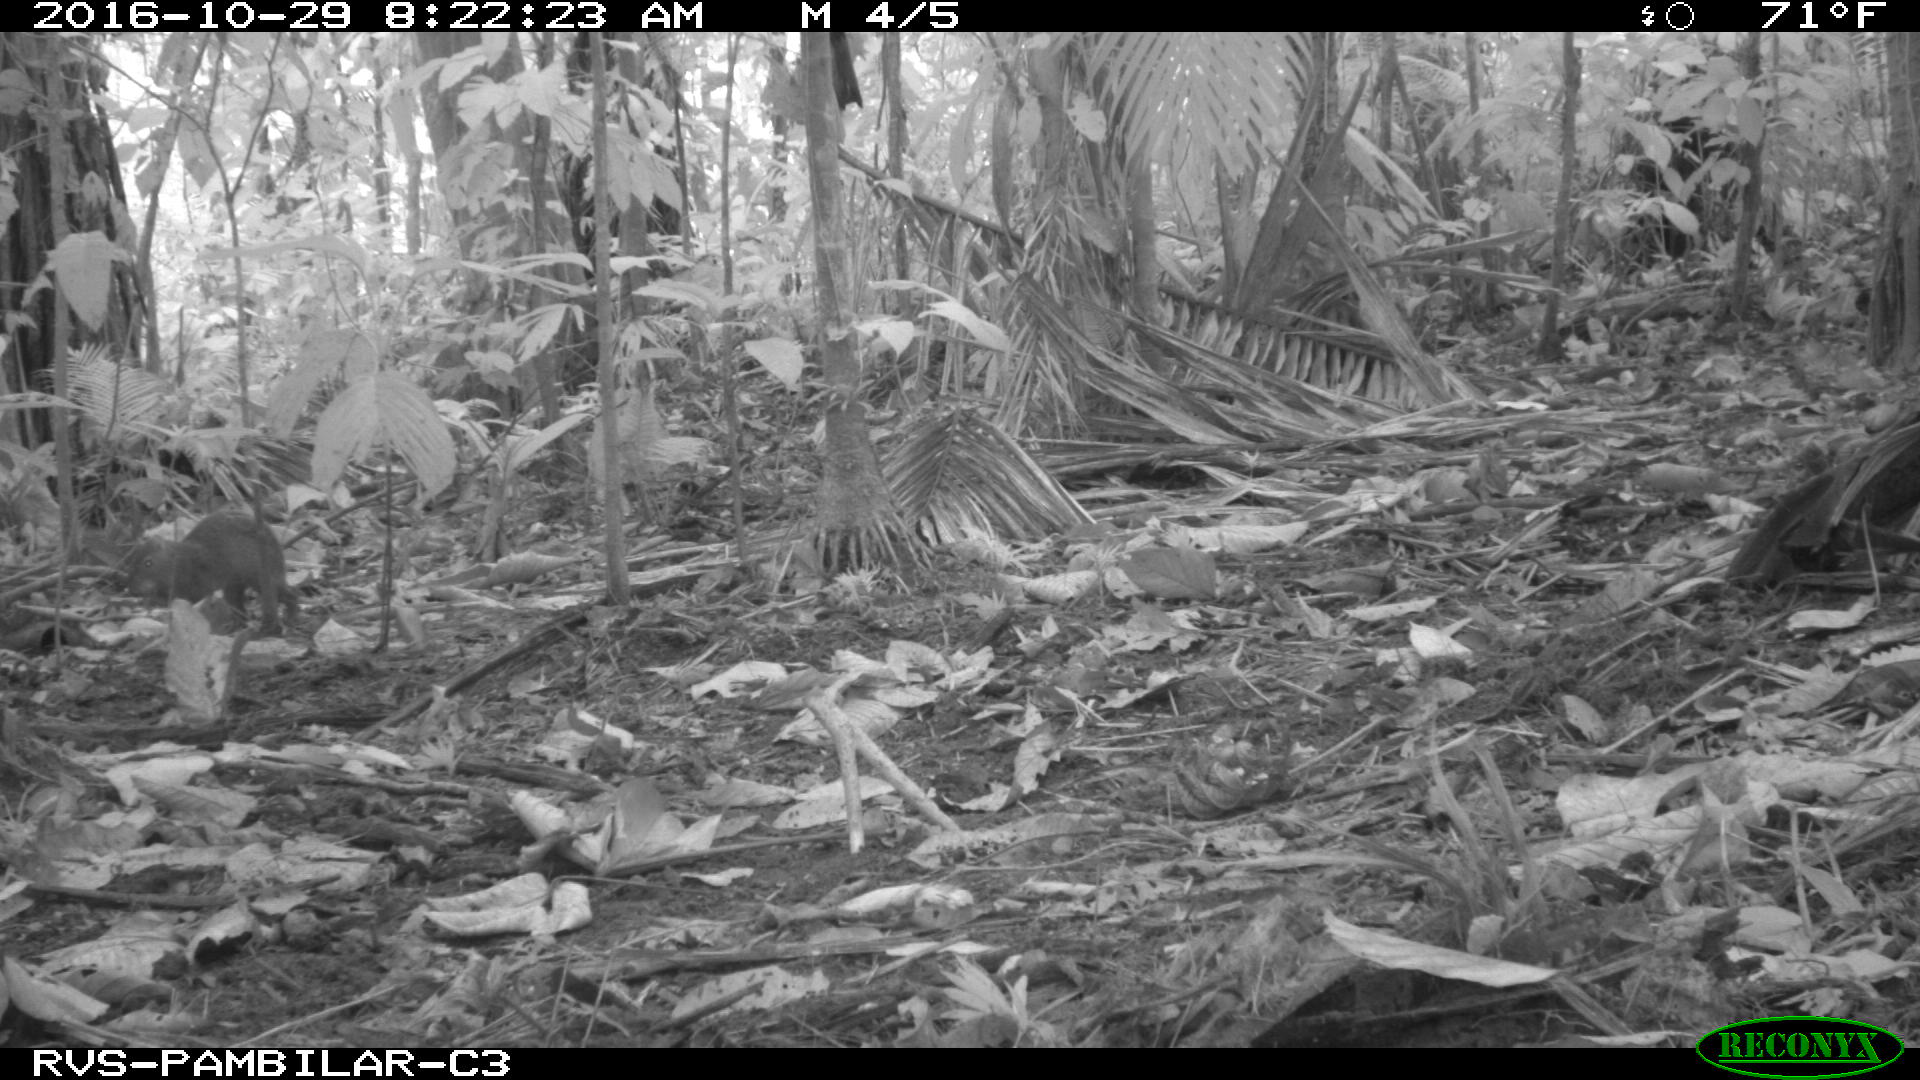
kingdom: Animalia
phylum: Chordata
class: Mammalia
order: Rodentia
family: Dasyproctidae
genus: Dasyprocta
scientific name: Dasyprocta punctata
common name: Central american agouti
